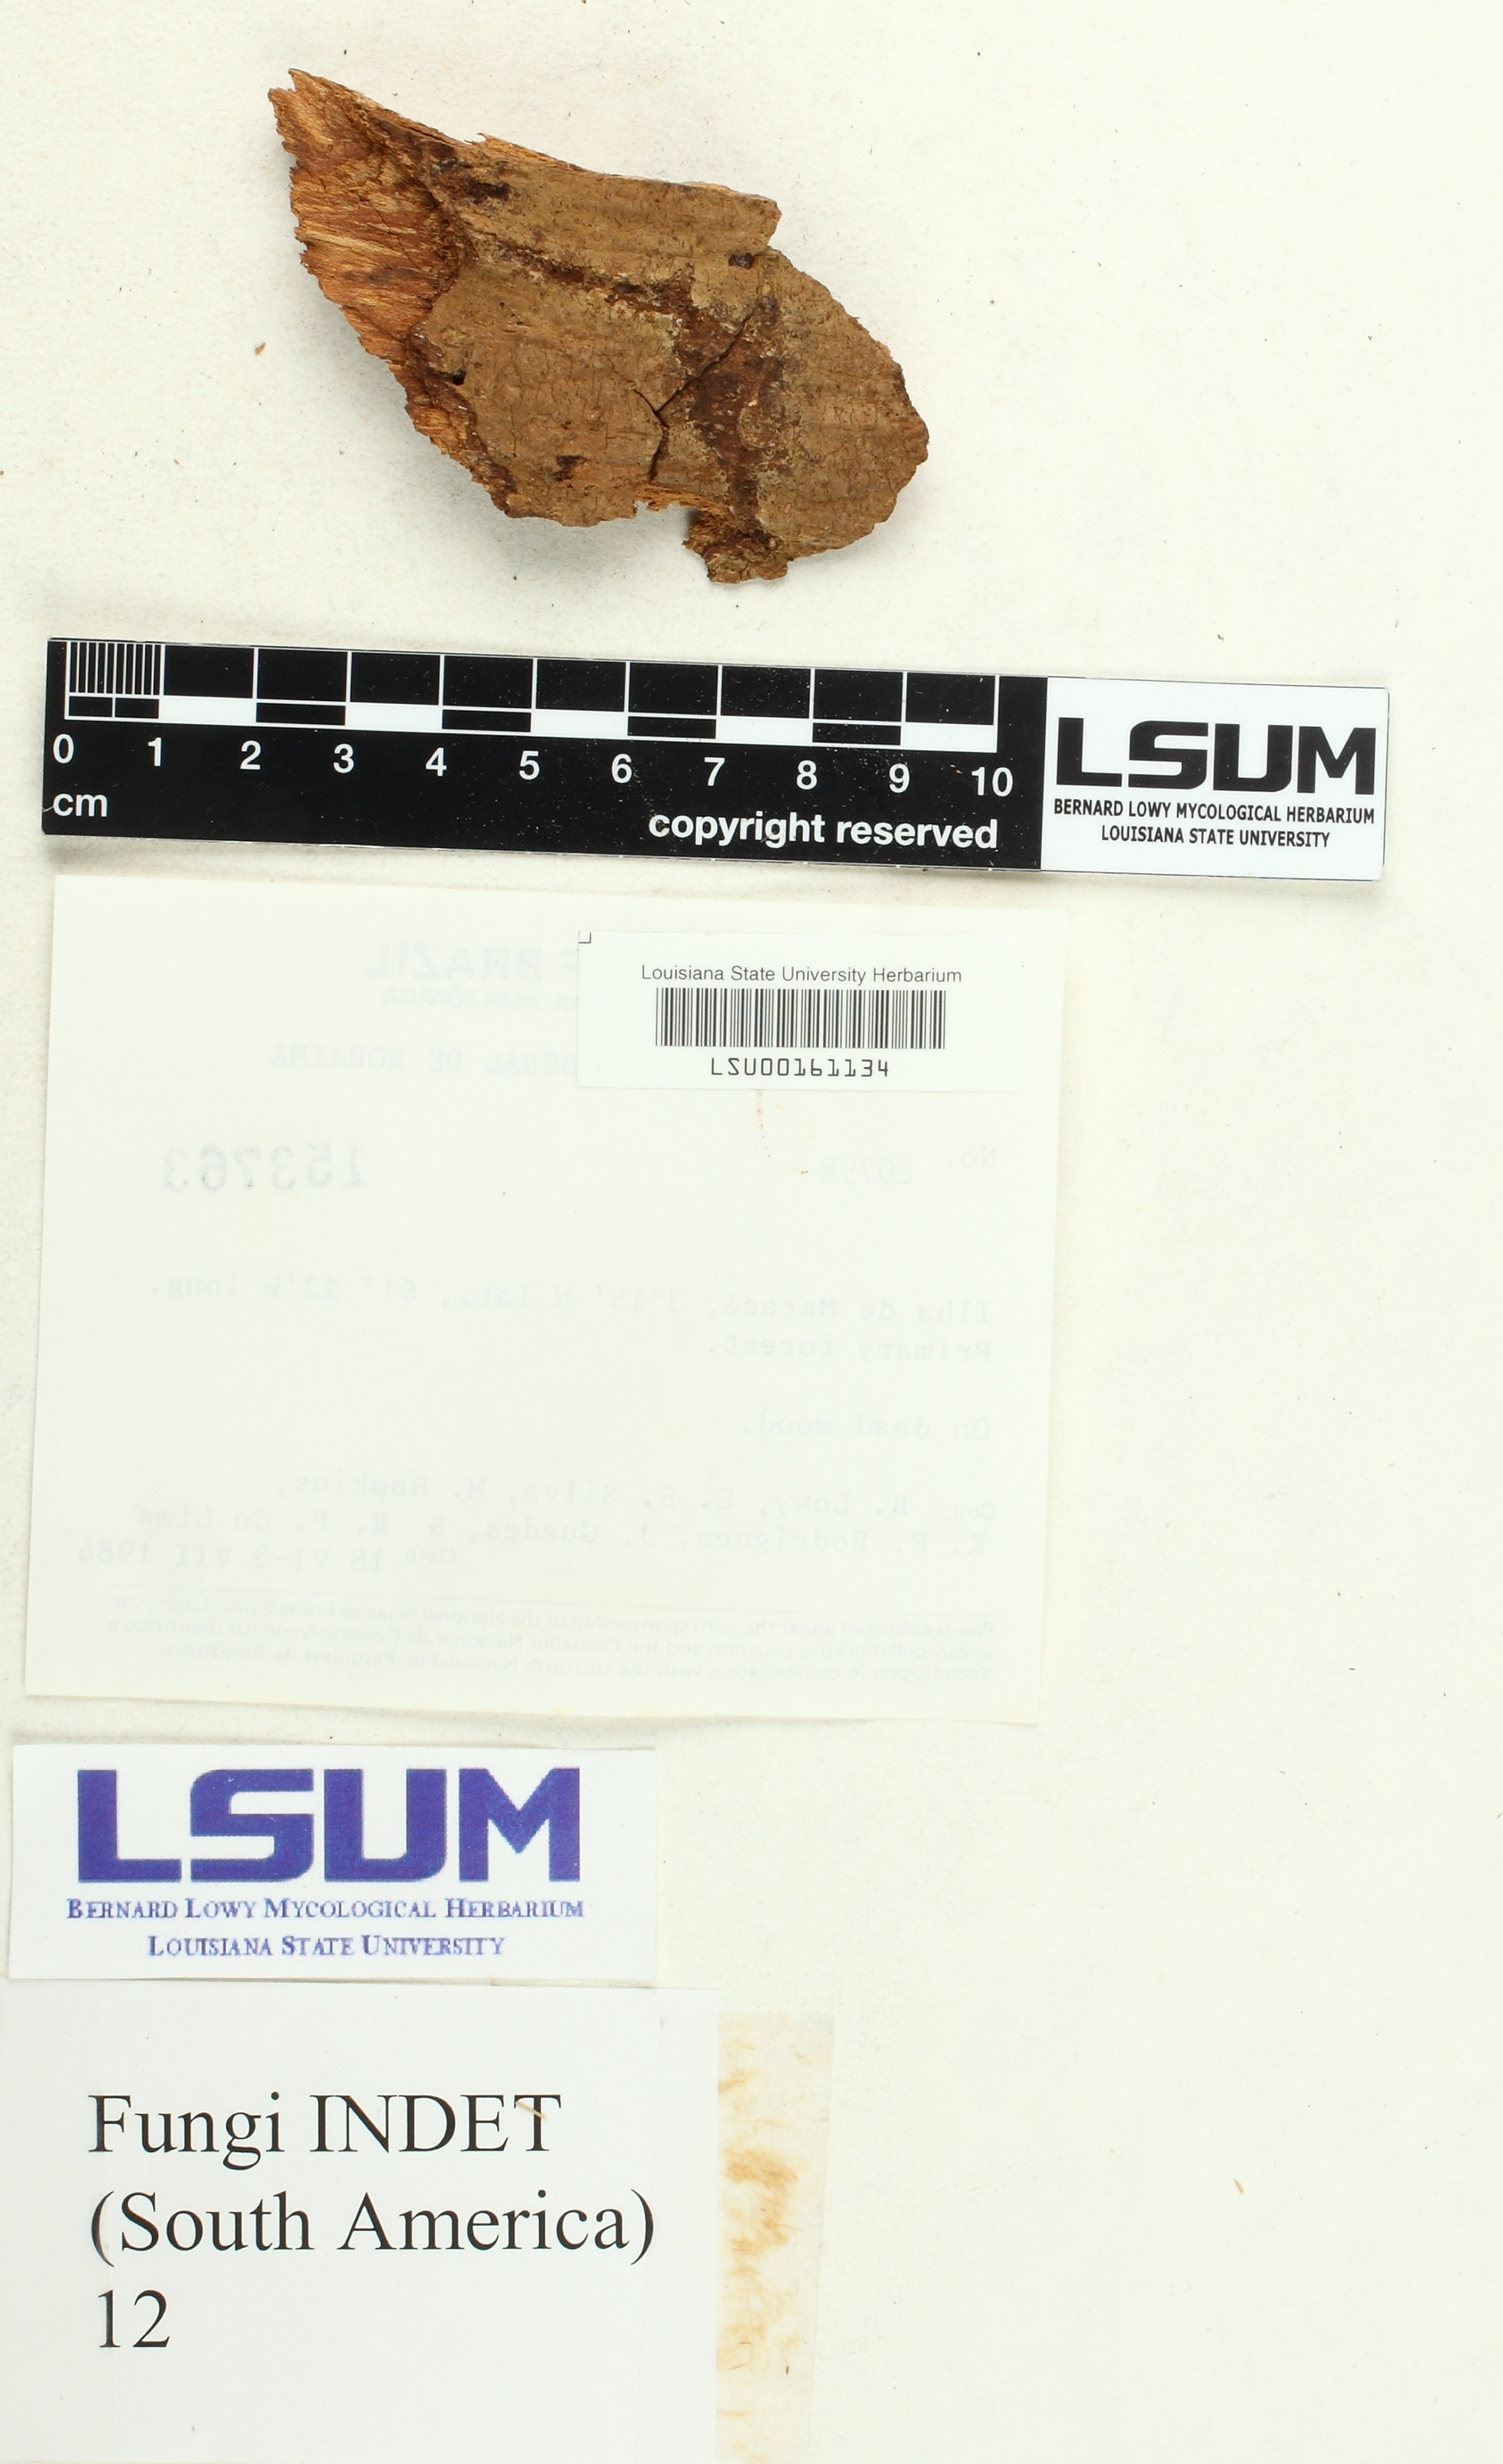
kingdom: Fungi
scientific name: Fungi
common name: Fungi
